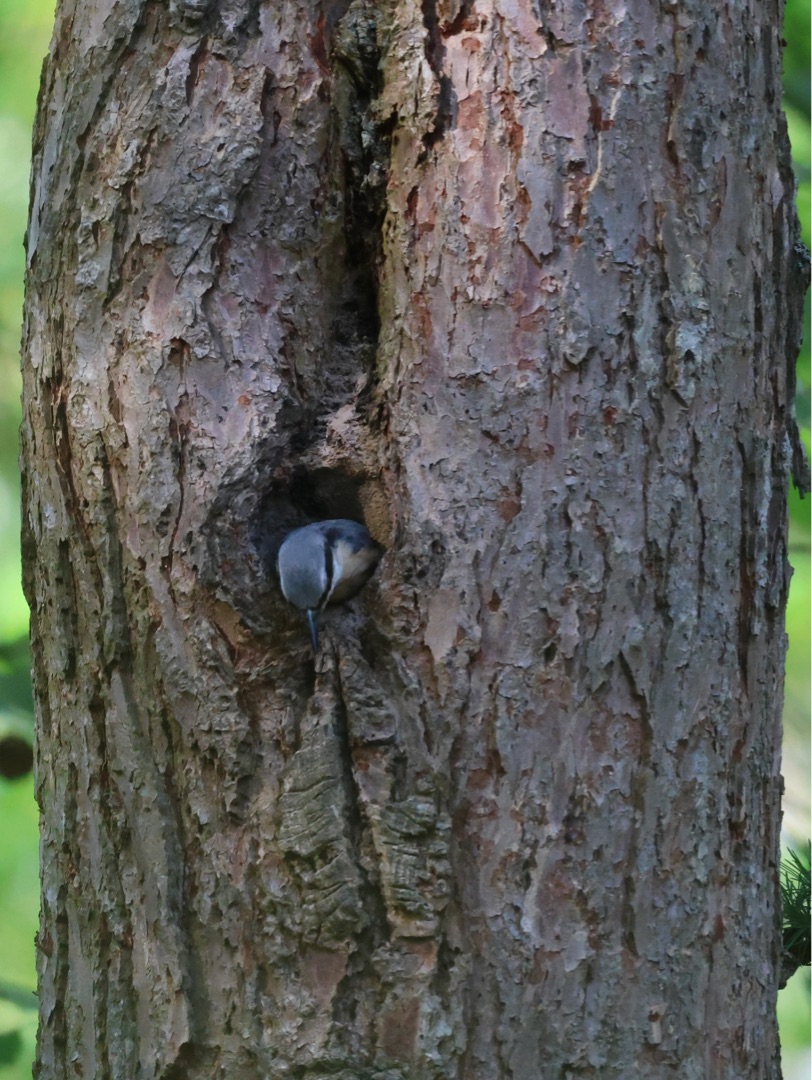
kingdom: Animalia
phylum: Chordata
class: Aves
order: Passeriformes
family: Sittidae
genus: Sitta
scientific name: Sitta europaea
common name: Spætmejse
